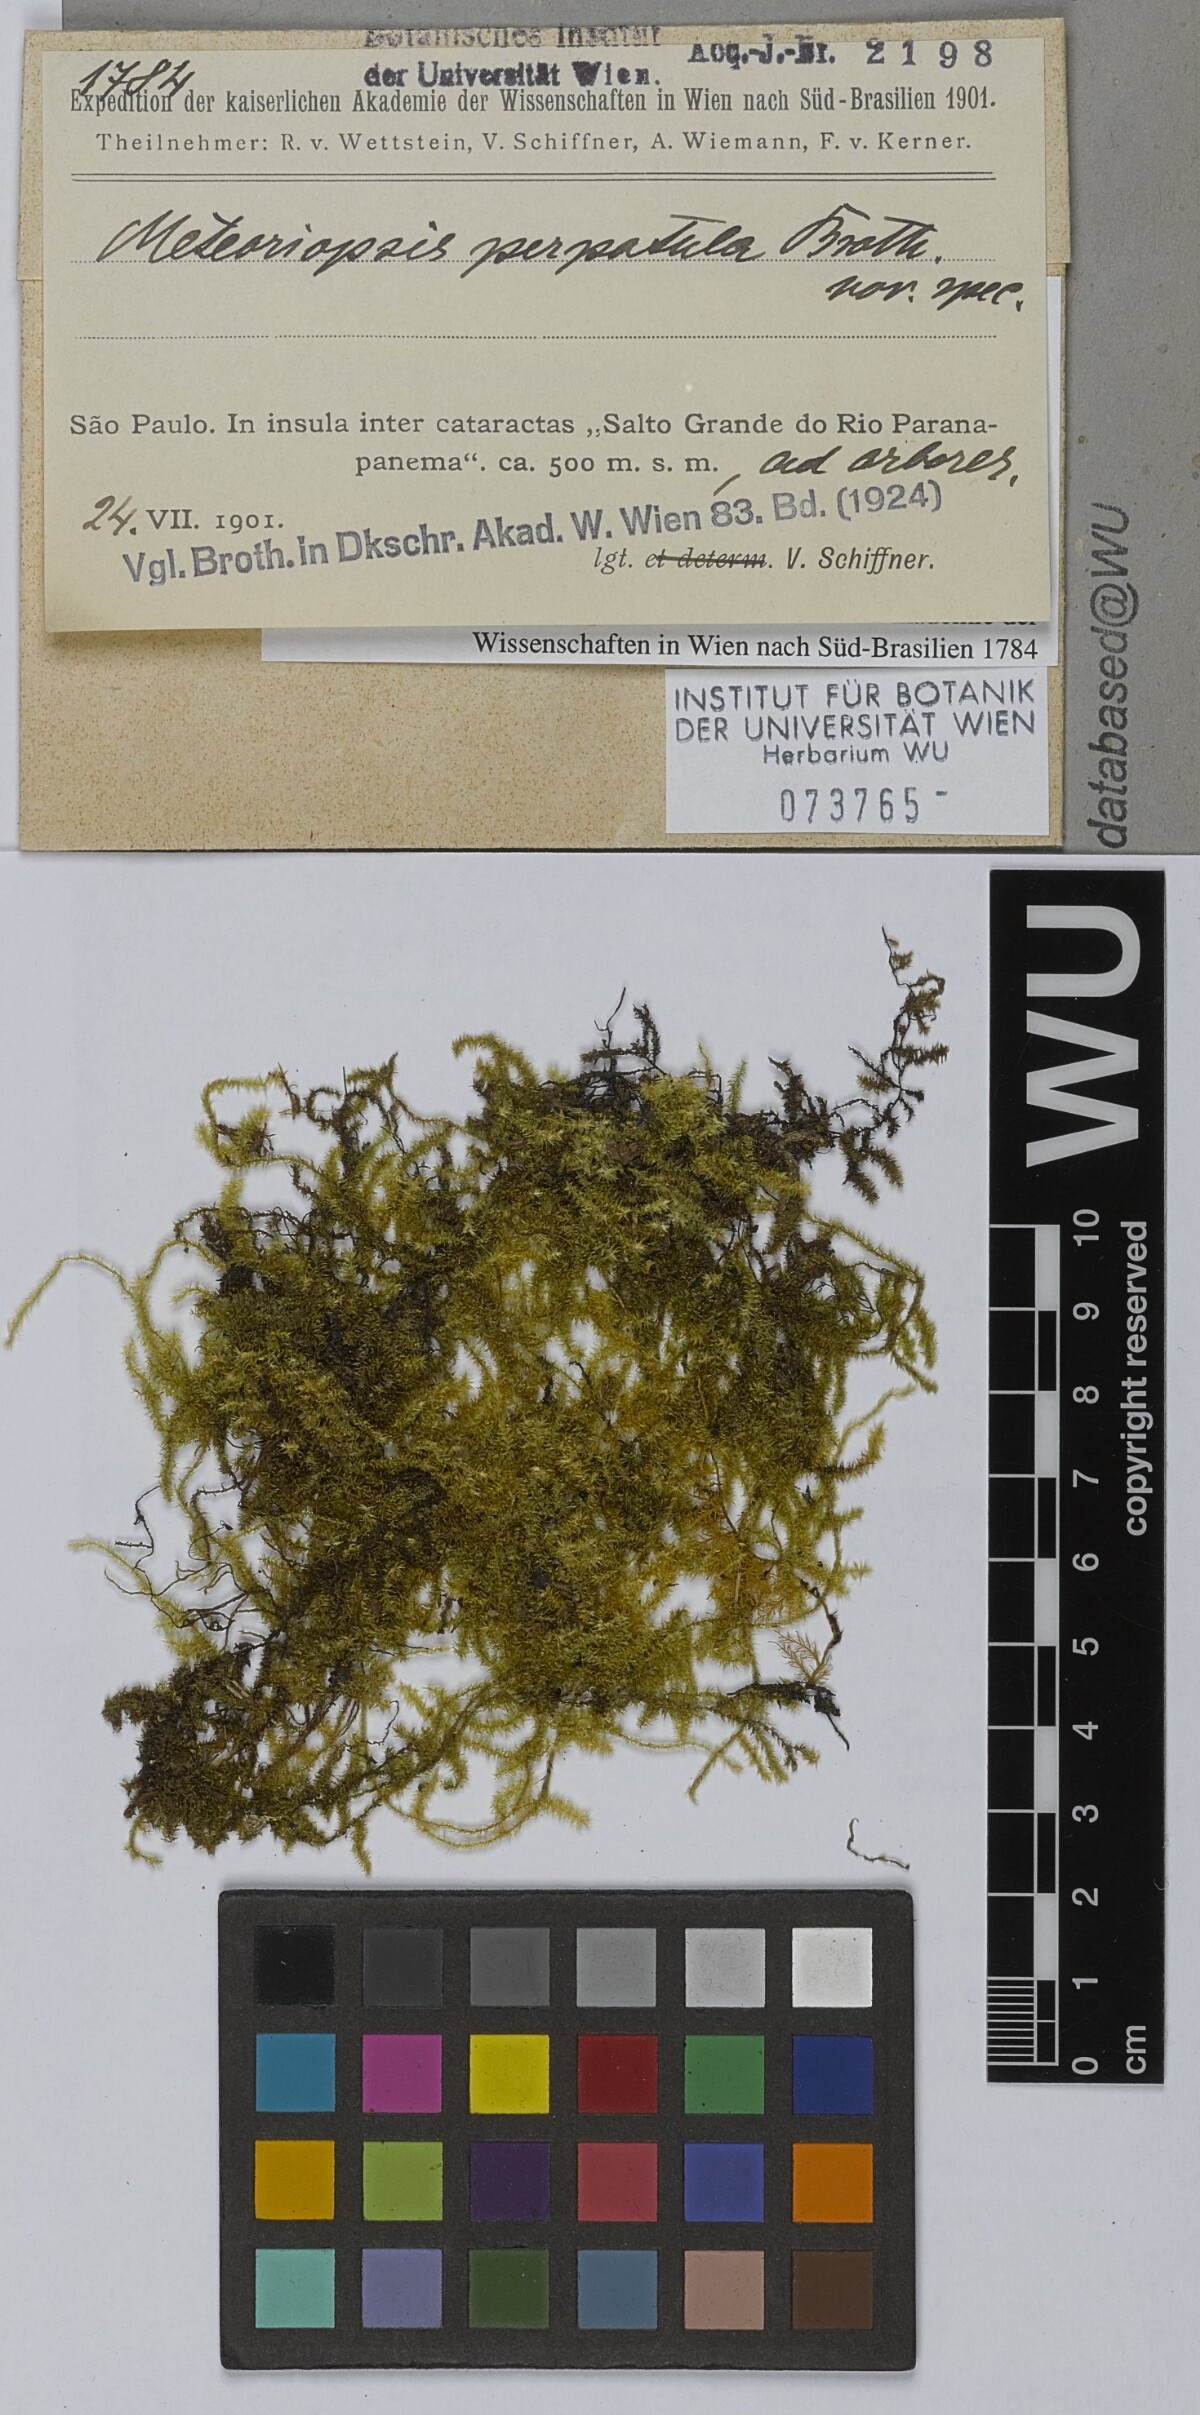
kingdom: Plantae
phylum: Bryophyta
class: Bryopsida
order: Hypnales
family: Brachytheciaceae
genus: Zelometeorium
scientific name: Zelometeorium patulum
